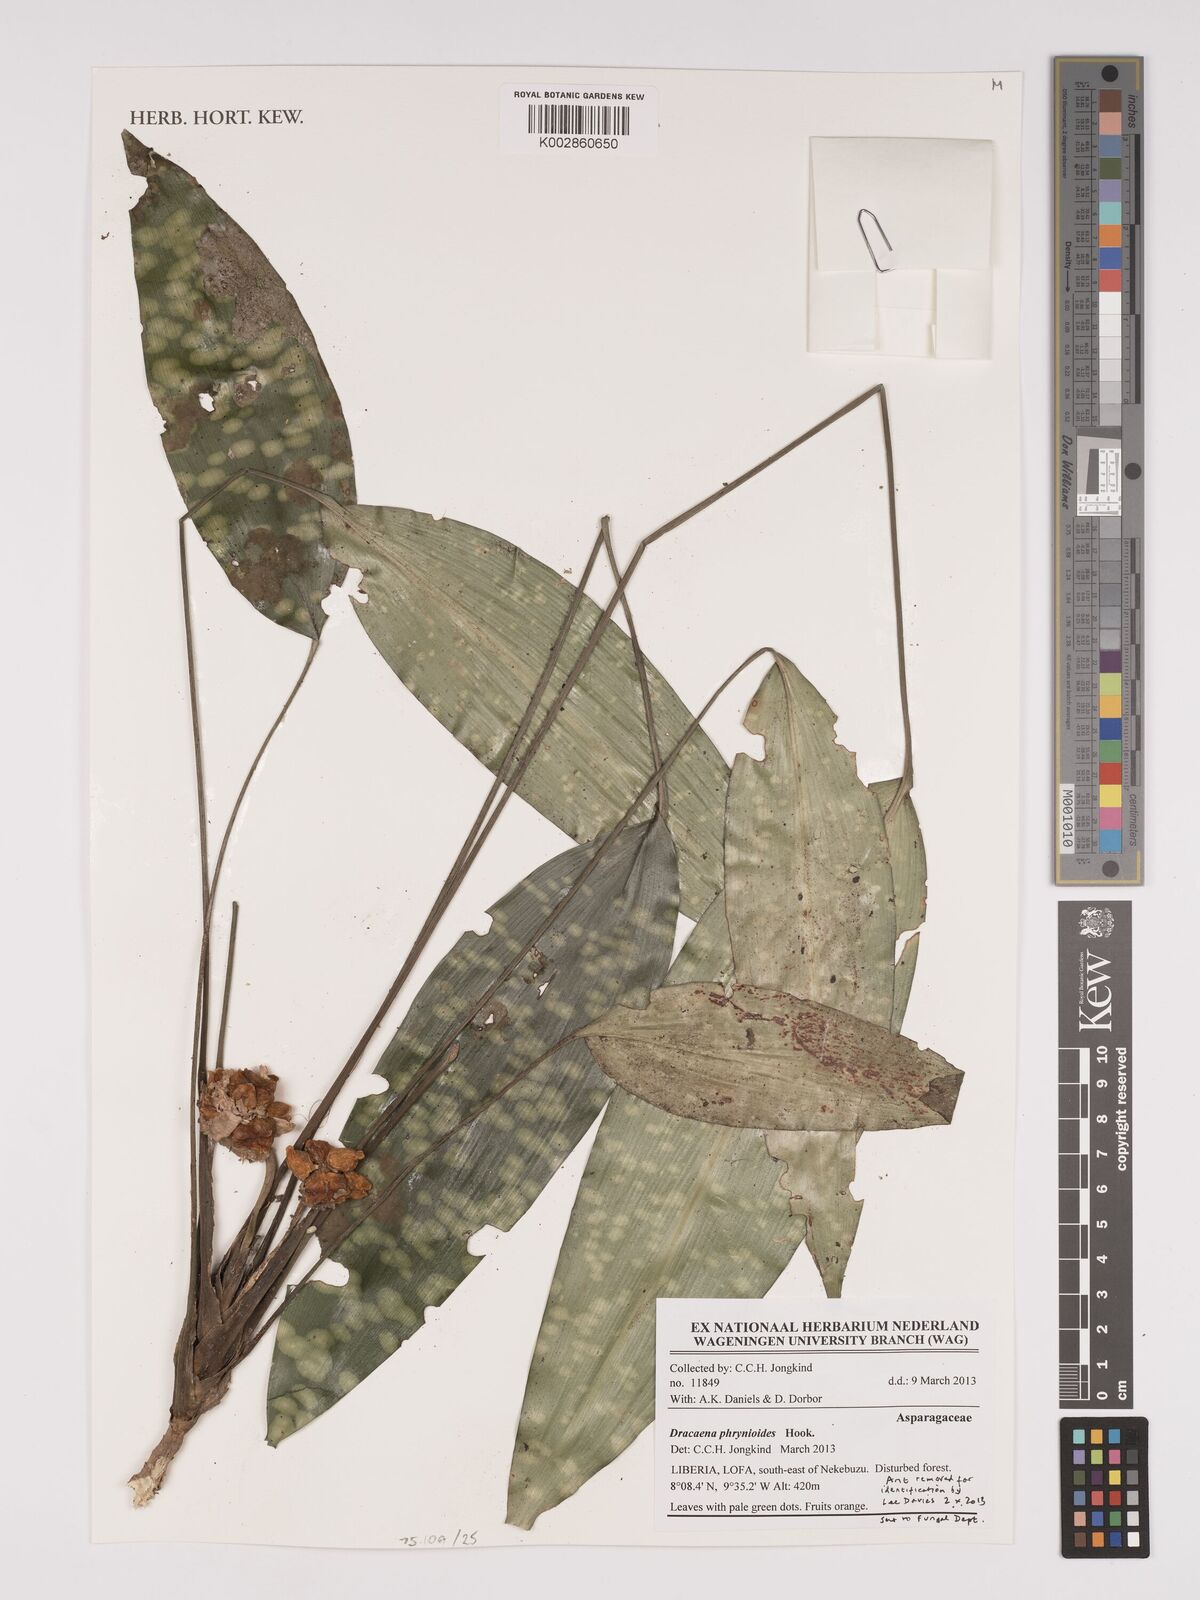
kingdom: Plantae
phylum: Tracheophyta
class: Liliopsida
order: Asparagales
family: Asparagaceae
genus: Dracaena
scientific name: Dracaena phrynioides
